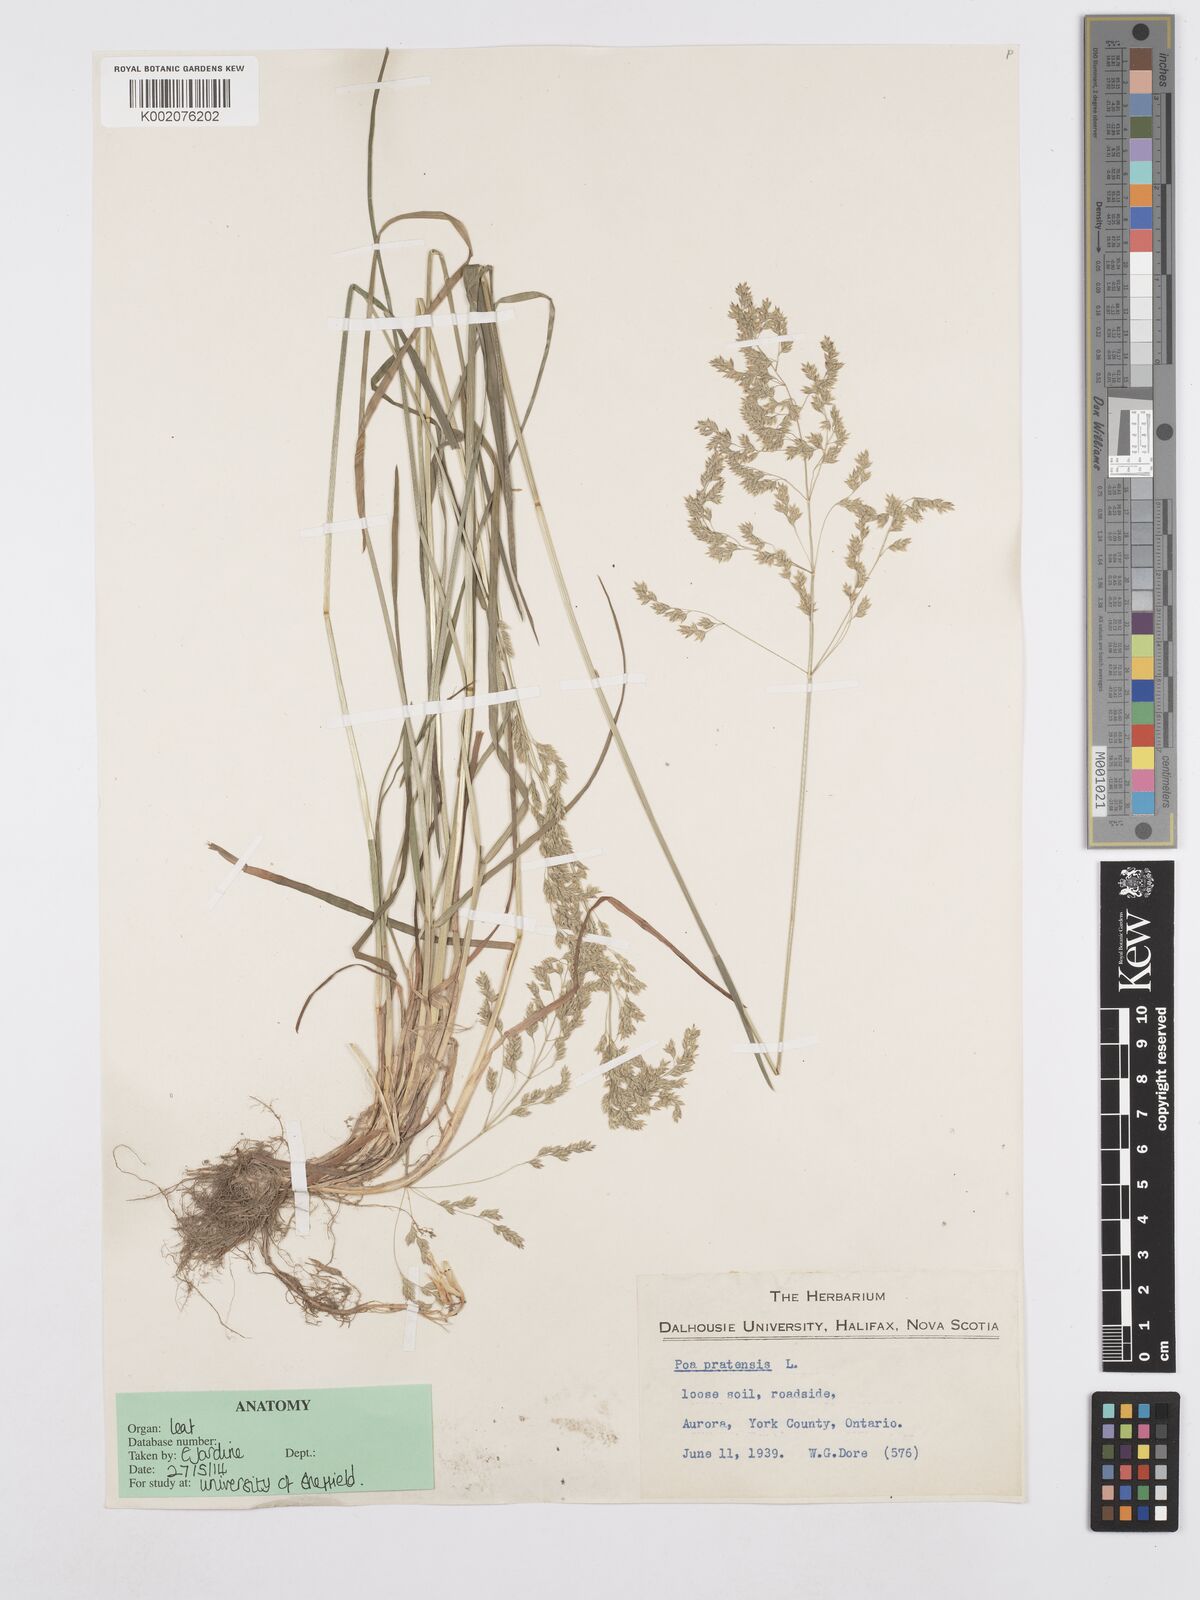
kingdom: Plantae
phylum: Tracheophyta
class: Liliopsida
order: Poales
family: Poaceae
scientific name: Poaceae
